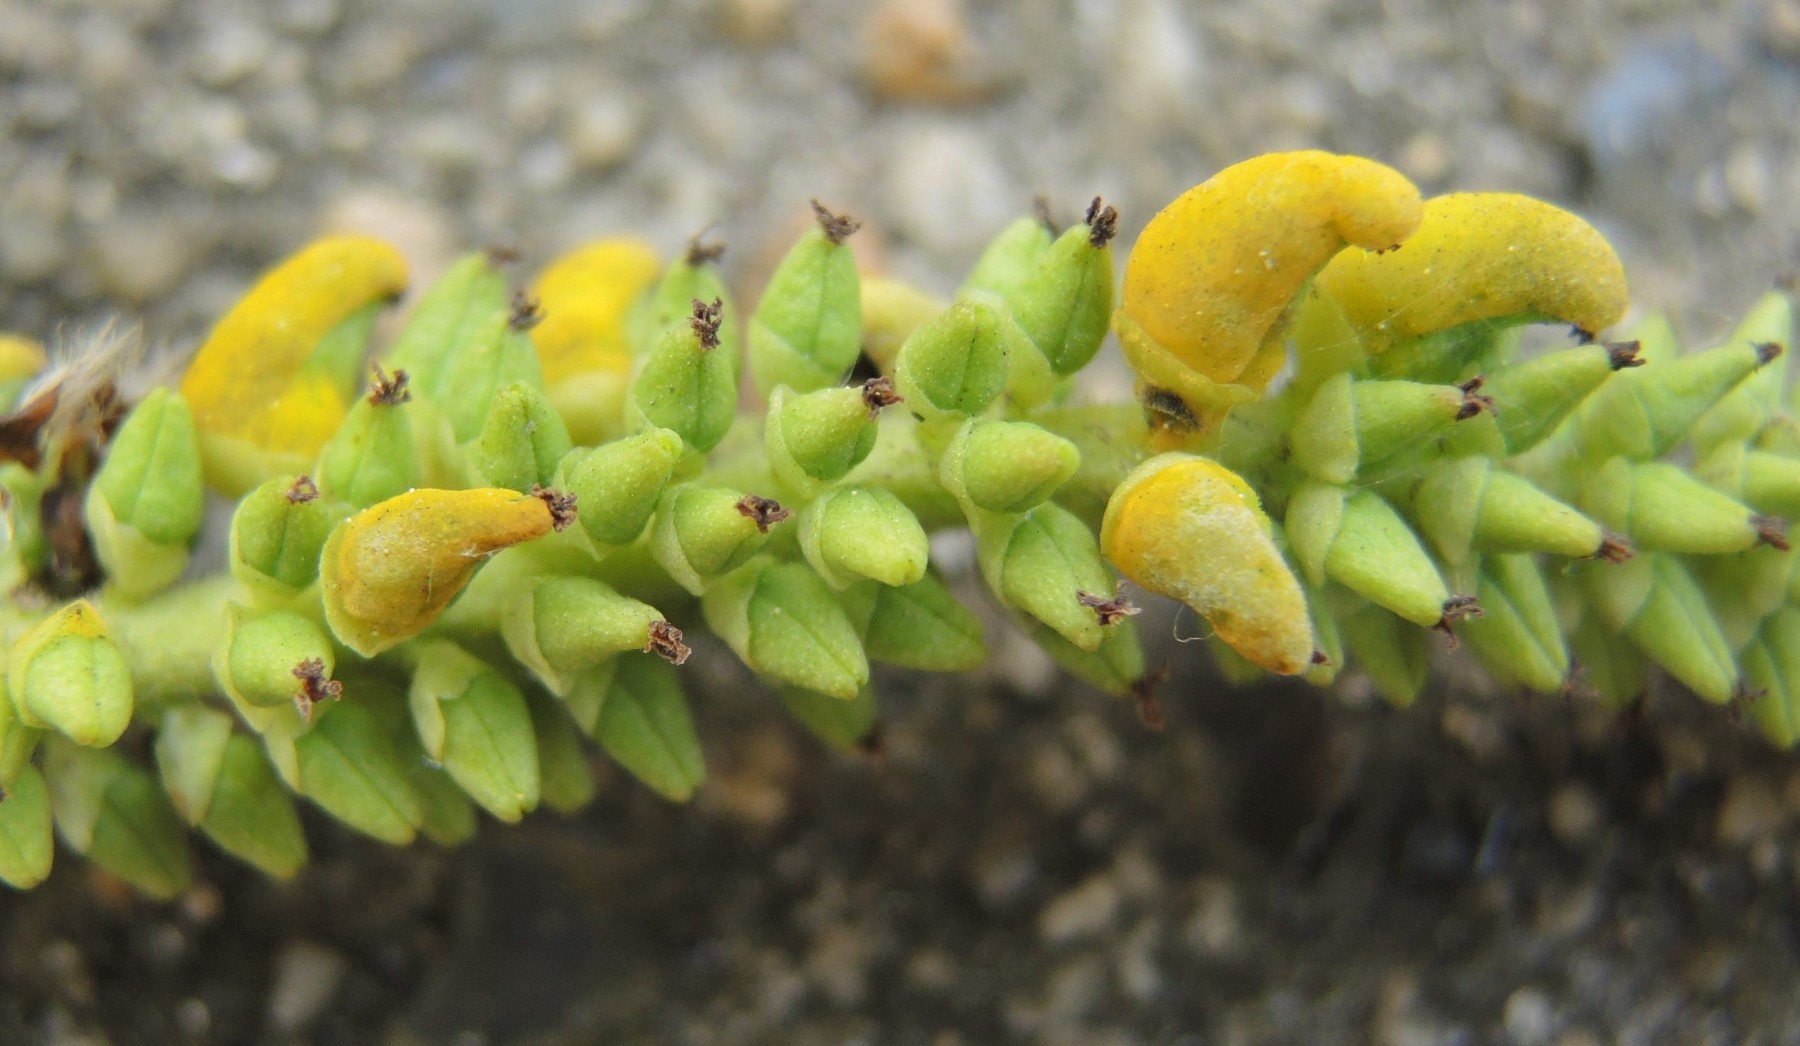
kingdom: Fungi
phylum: Ascomycota
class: Taphrinomycetes
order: Taphrinales
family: Taphrinaceae
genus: Taphrina
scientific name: Taphrina johansonii
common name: Aspen tongue
